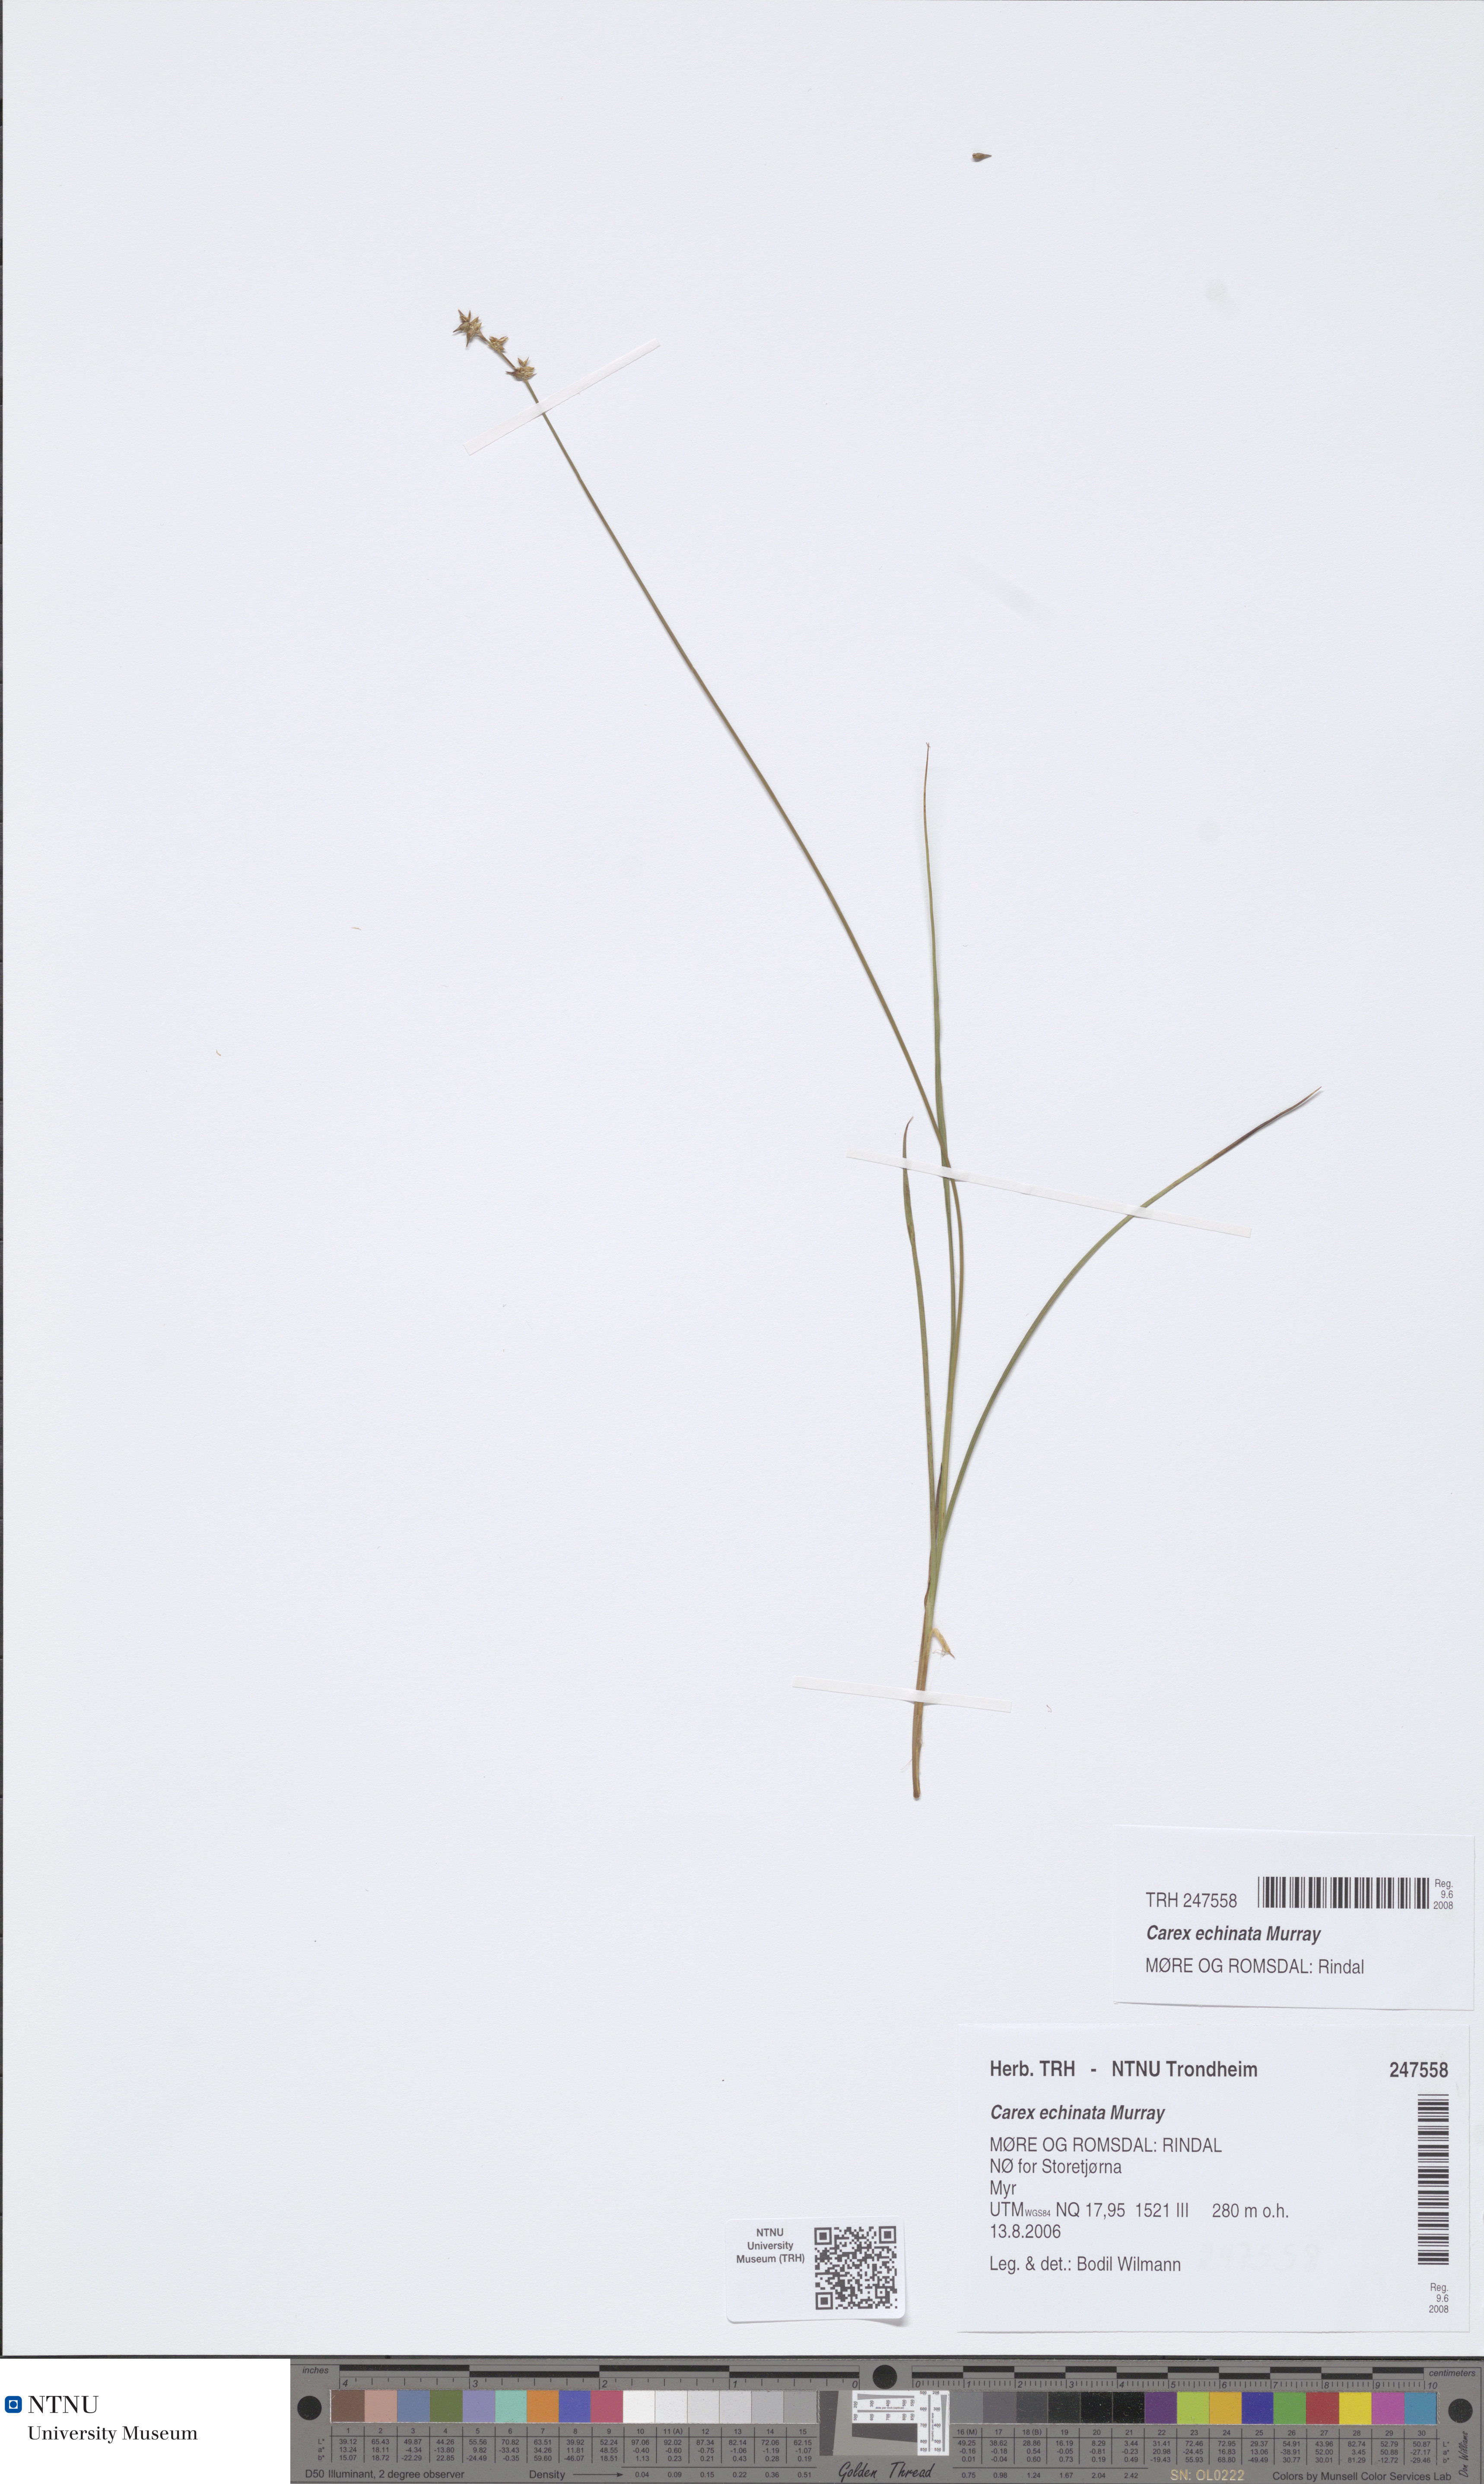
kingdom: Plantae
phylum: Tracheophyta
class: Liliopsida
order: Poales
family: Cyperaceae
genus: Carex
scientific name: Carex echinata
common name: Star sedge
